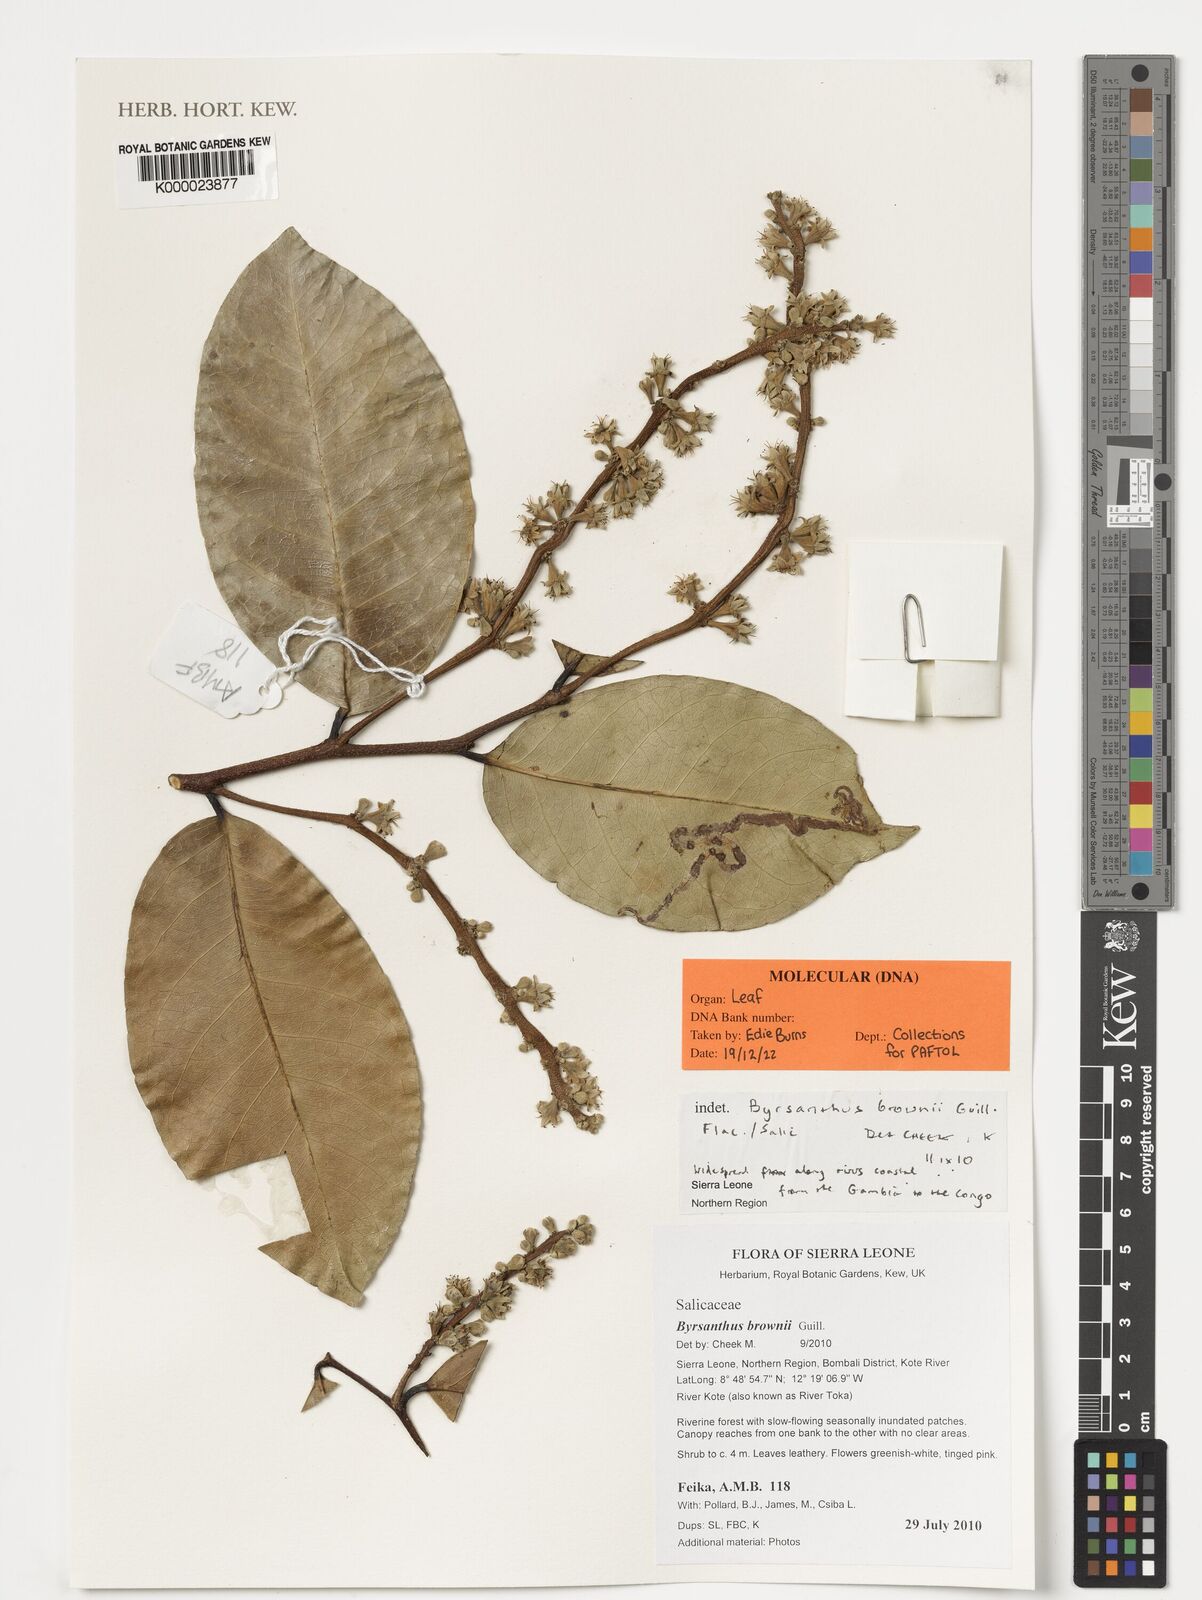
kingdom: Plantae
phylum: Tracheophyta
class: Magnoliopsida
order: Malpighiales
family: Salicaceae
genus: Byrsanthus
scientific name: Byrsanthus brownii
